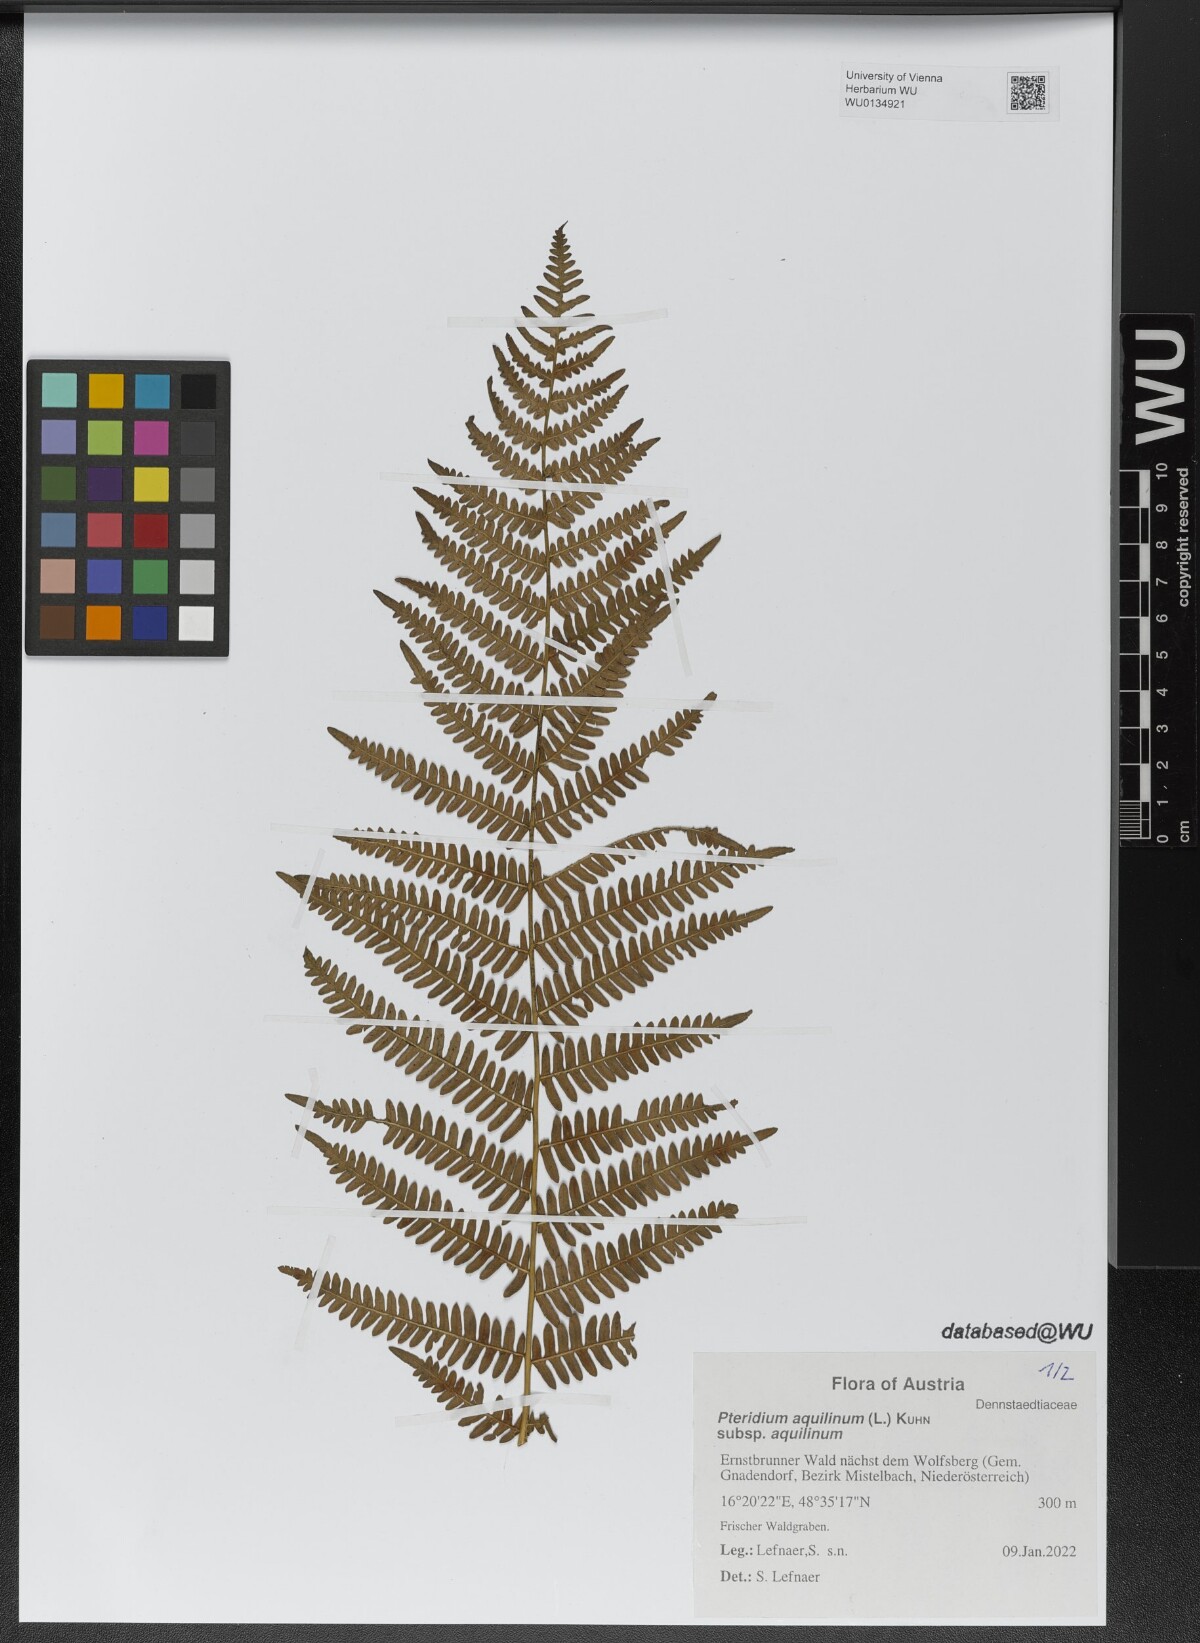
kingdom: Plantae
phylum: Tracheophyta
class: Polypodiopsida
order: Polypodiales
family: Dennstaedtiaceae
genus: Pteridium
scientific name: Pteridium aquilinum
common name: Bracken
